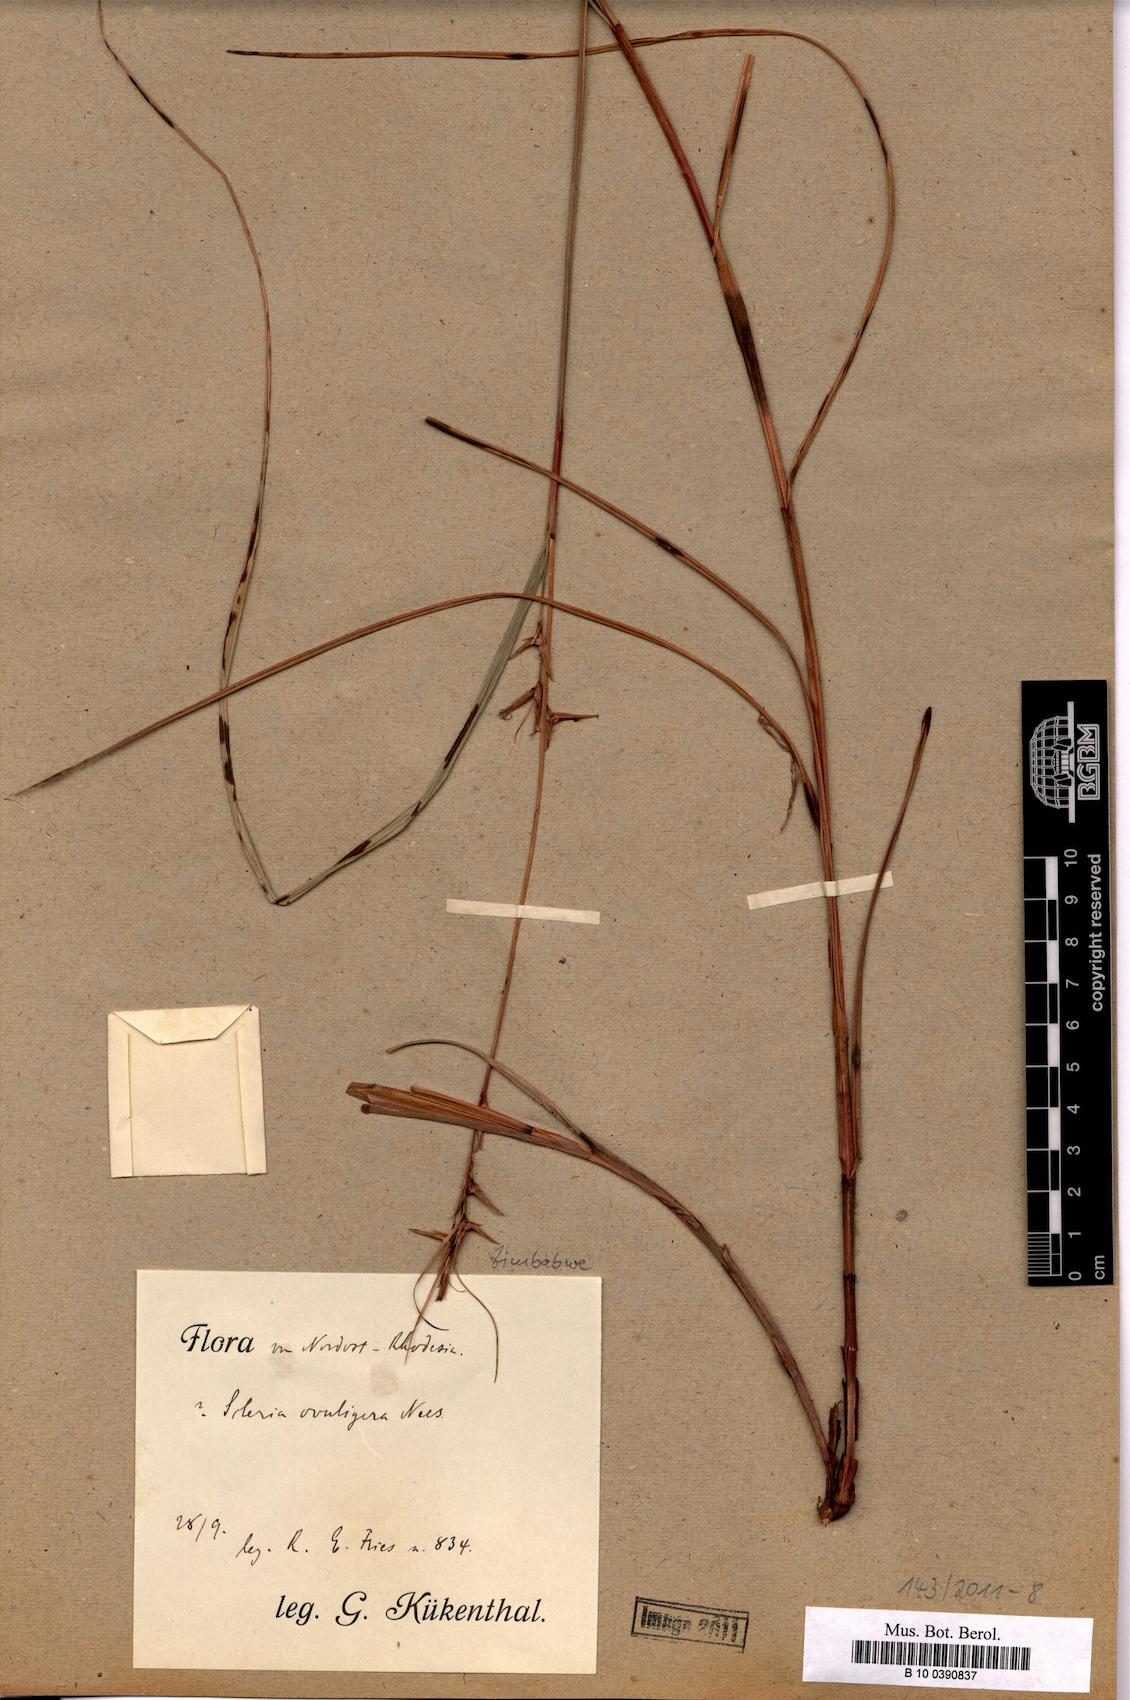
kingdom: Plantae
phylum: Tracheophyta
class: Liliopsida
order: Poales
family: Cyperaceae
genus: Scleria
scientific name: Scleria
